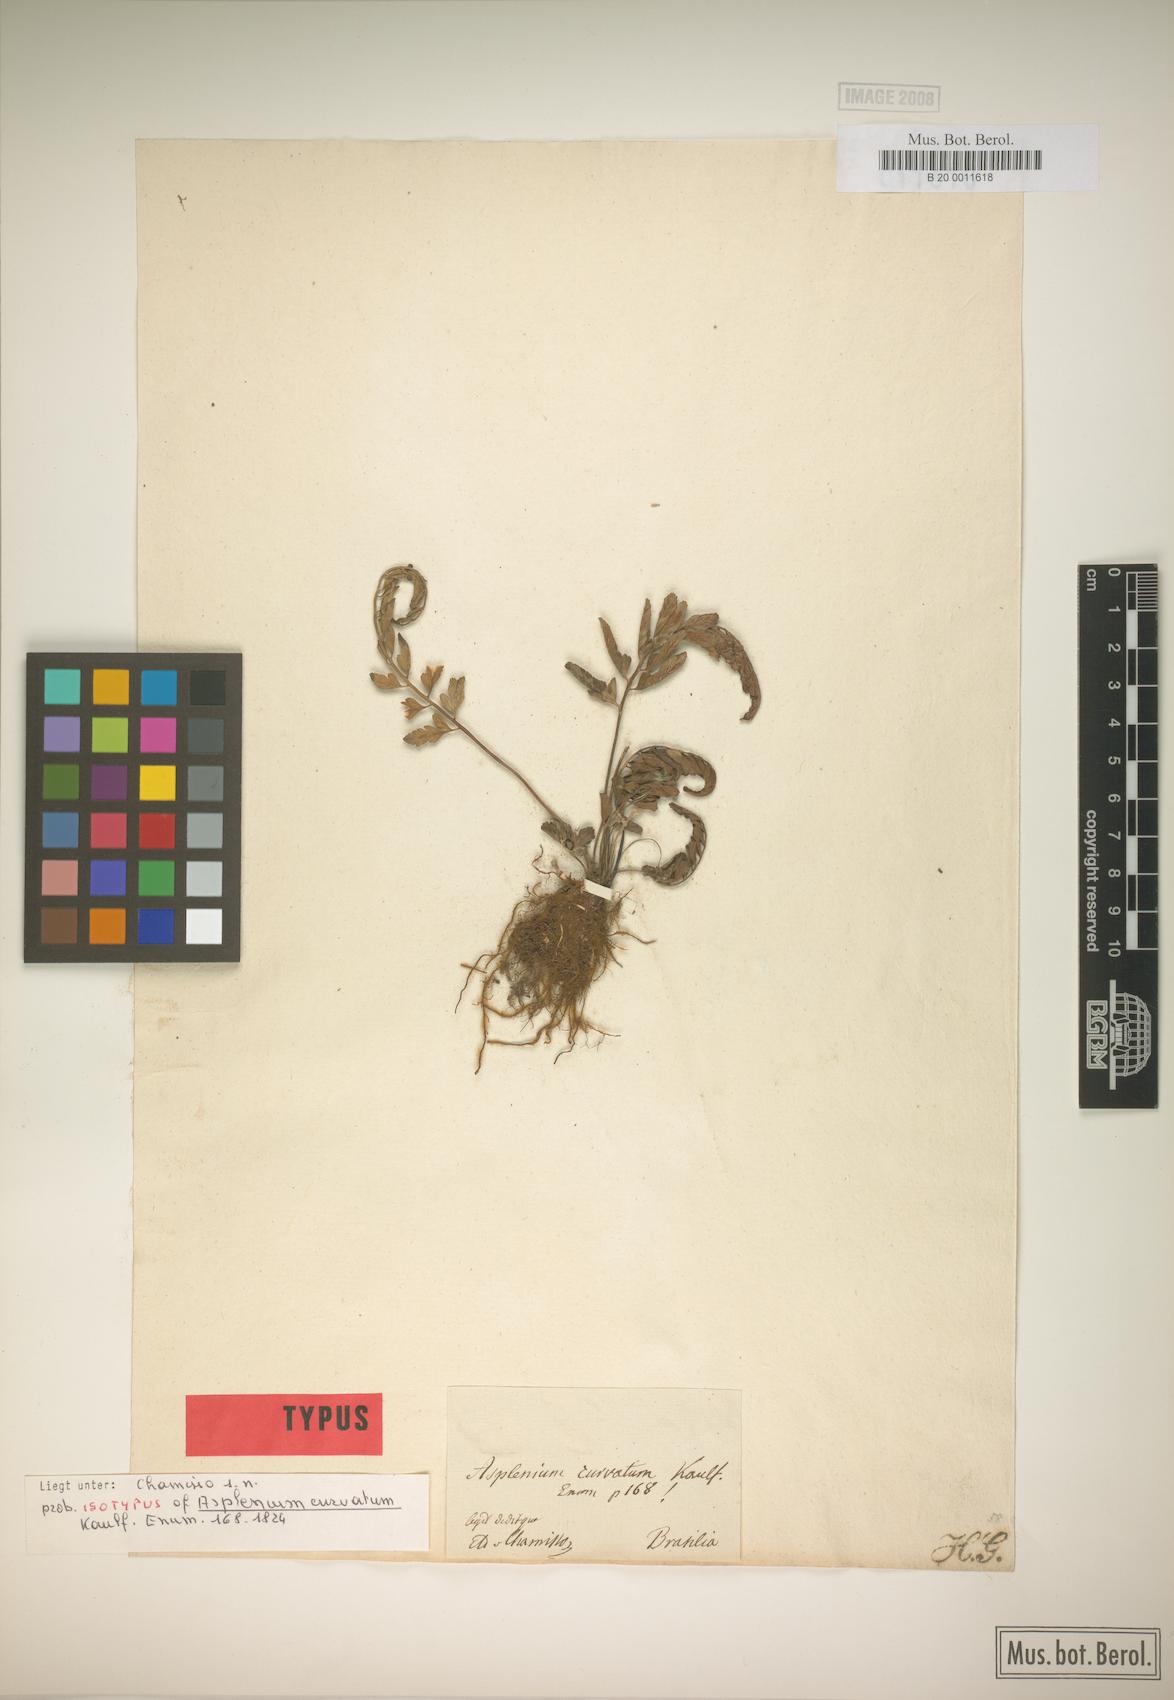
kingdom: Plantae
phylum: Tracheophyta
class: Polypodiopsida
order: Polypodiales
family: Aspleniaceae
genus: Asplenium
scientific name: Asplenium auritum
